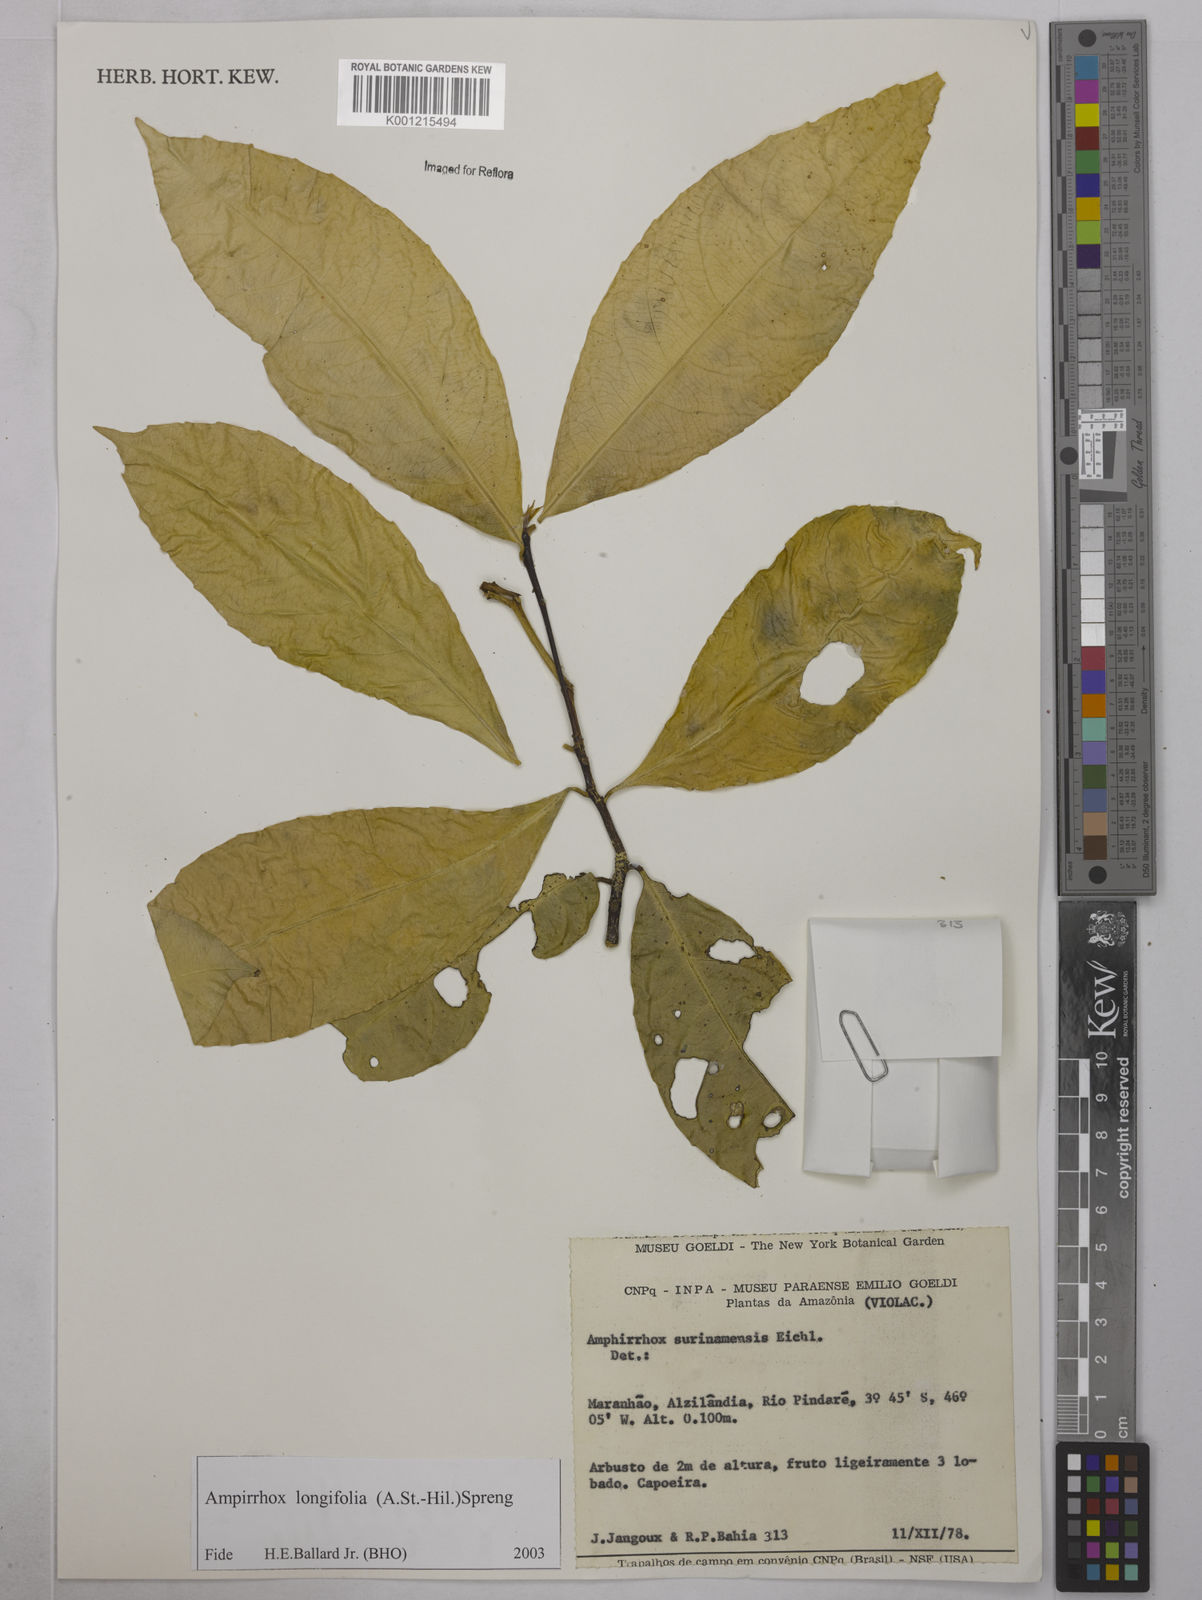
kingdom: Plantae
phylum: Tracheophyta
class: Magnoliopsida
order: Malpighiales
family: Violaceae
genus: Amphirrhox
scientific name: Amphirrhox longifolia
